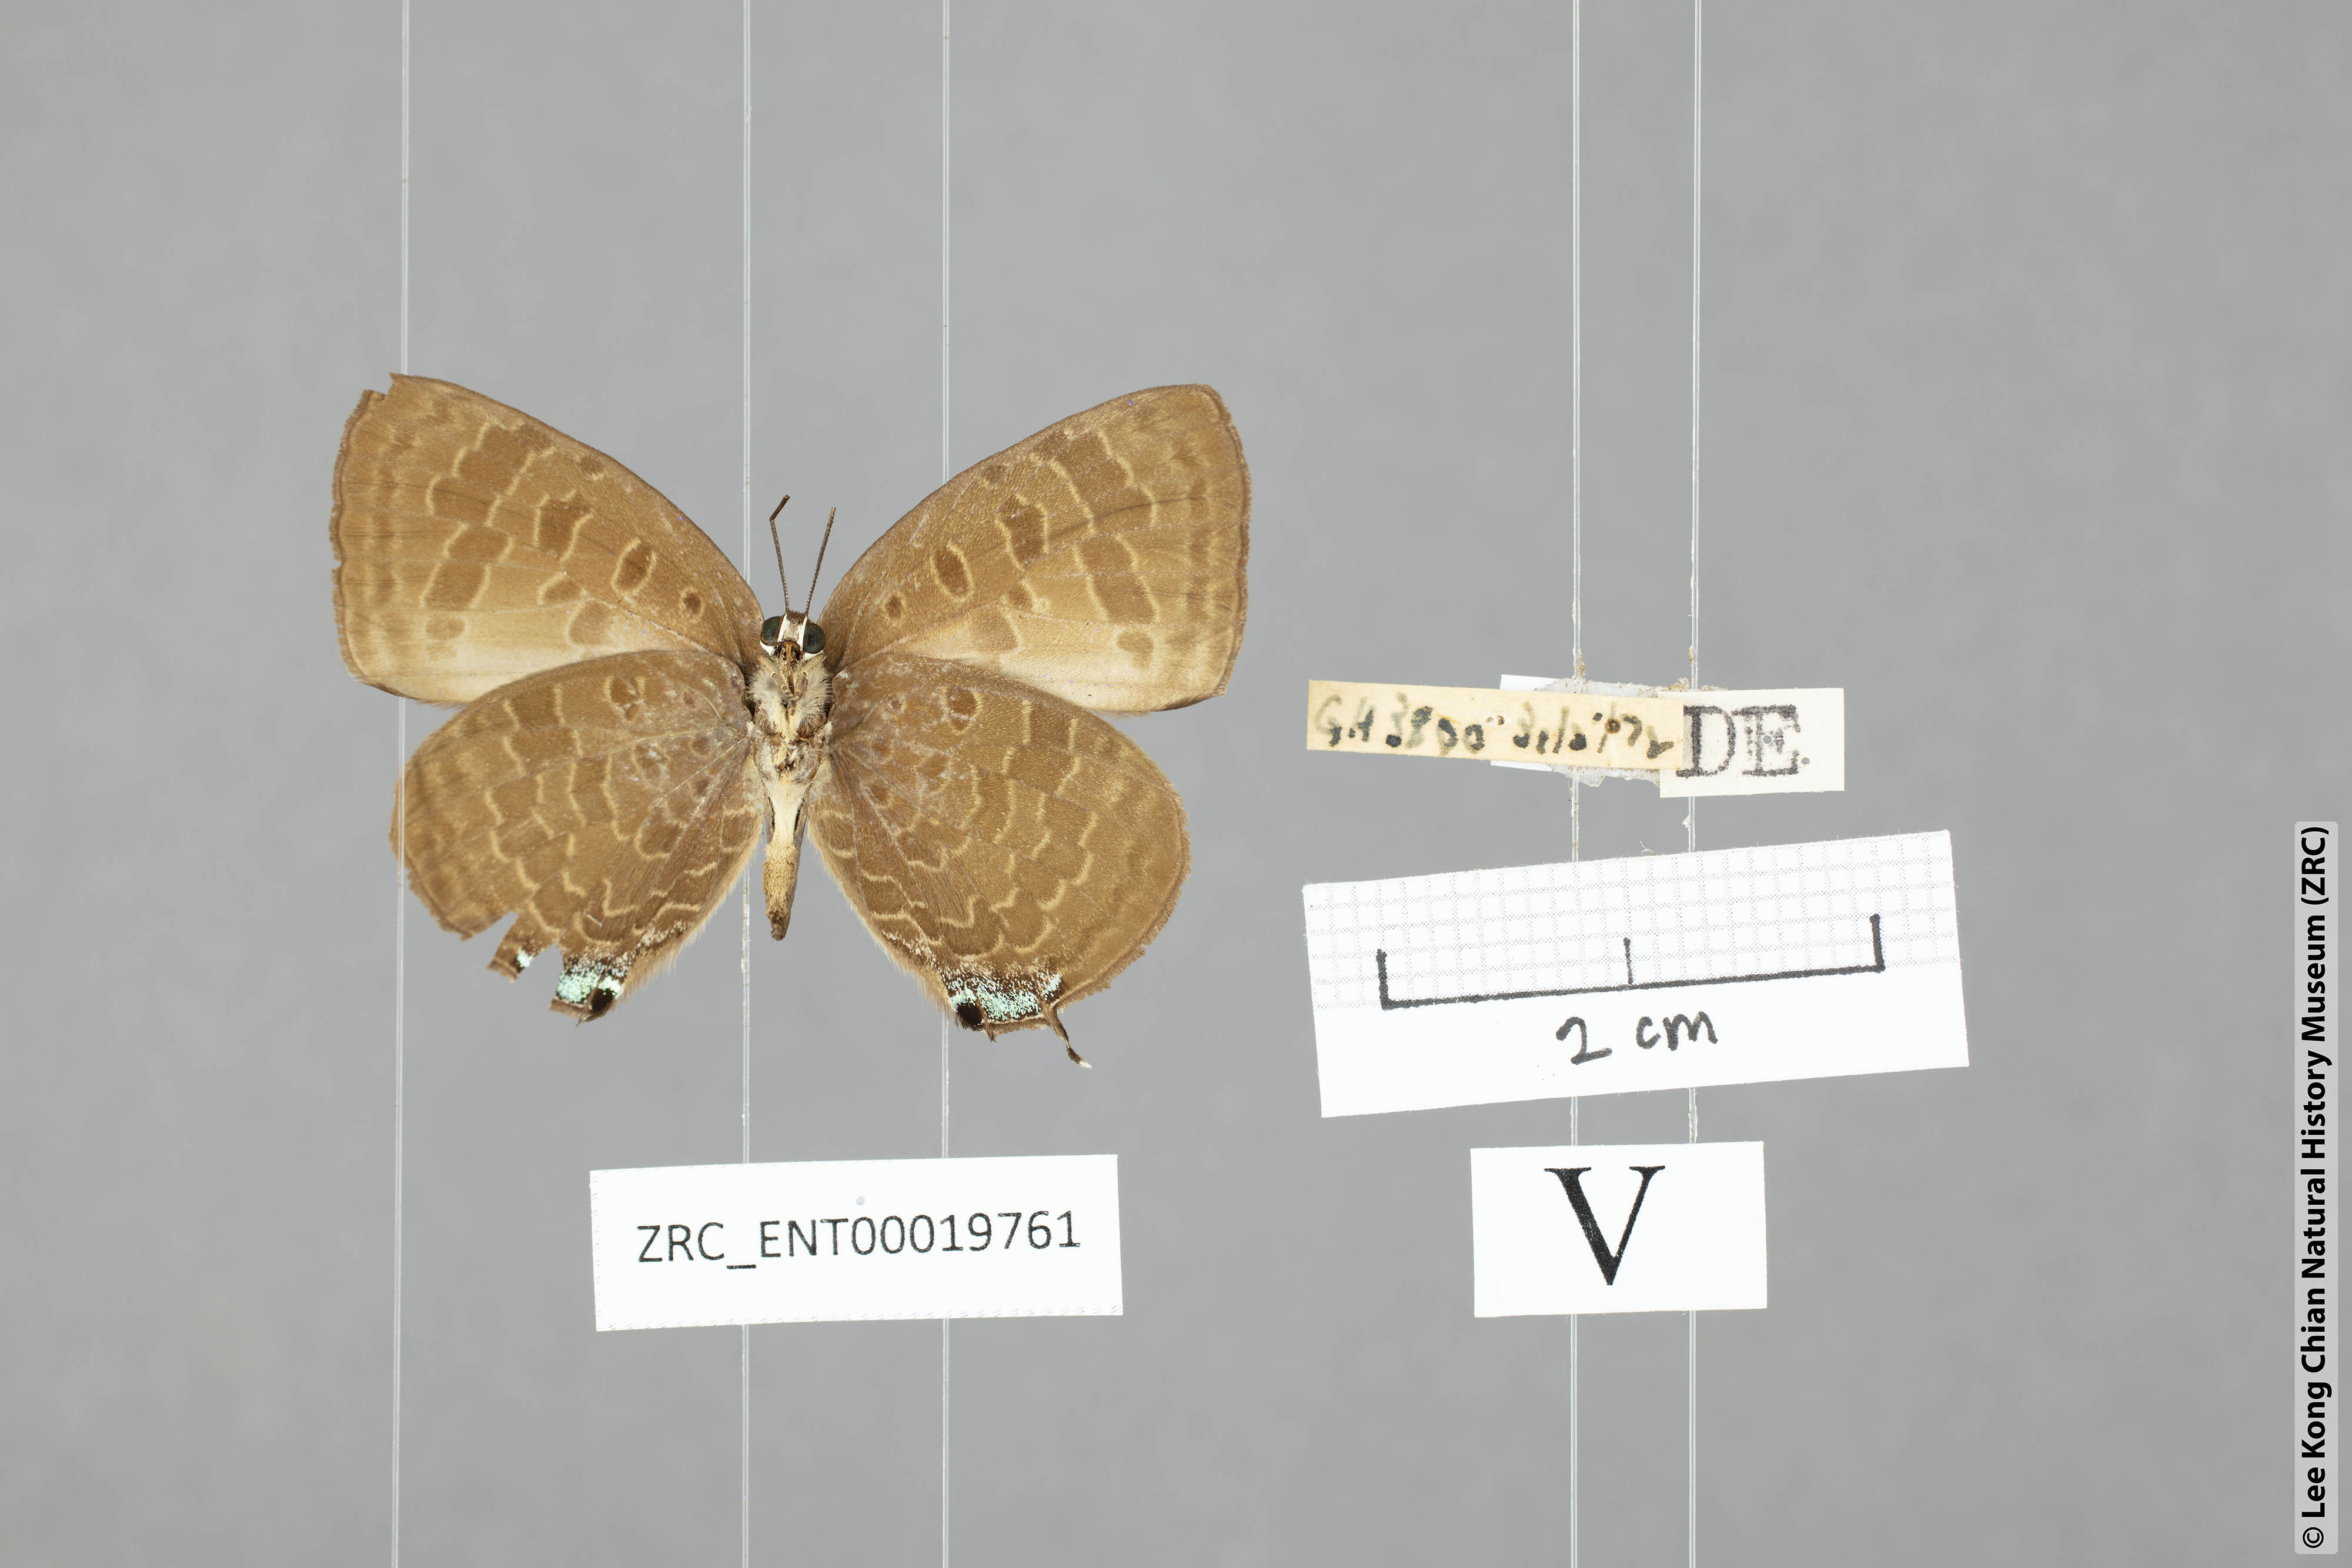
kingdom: Animalia
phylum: Arthropoda
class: Insecta
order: Lepidoptera
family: Lycaenidae
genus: Arhopala
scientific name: Arhopala overdijkinki
